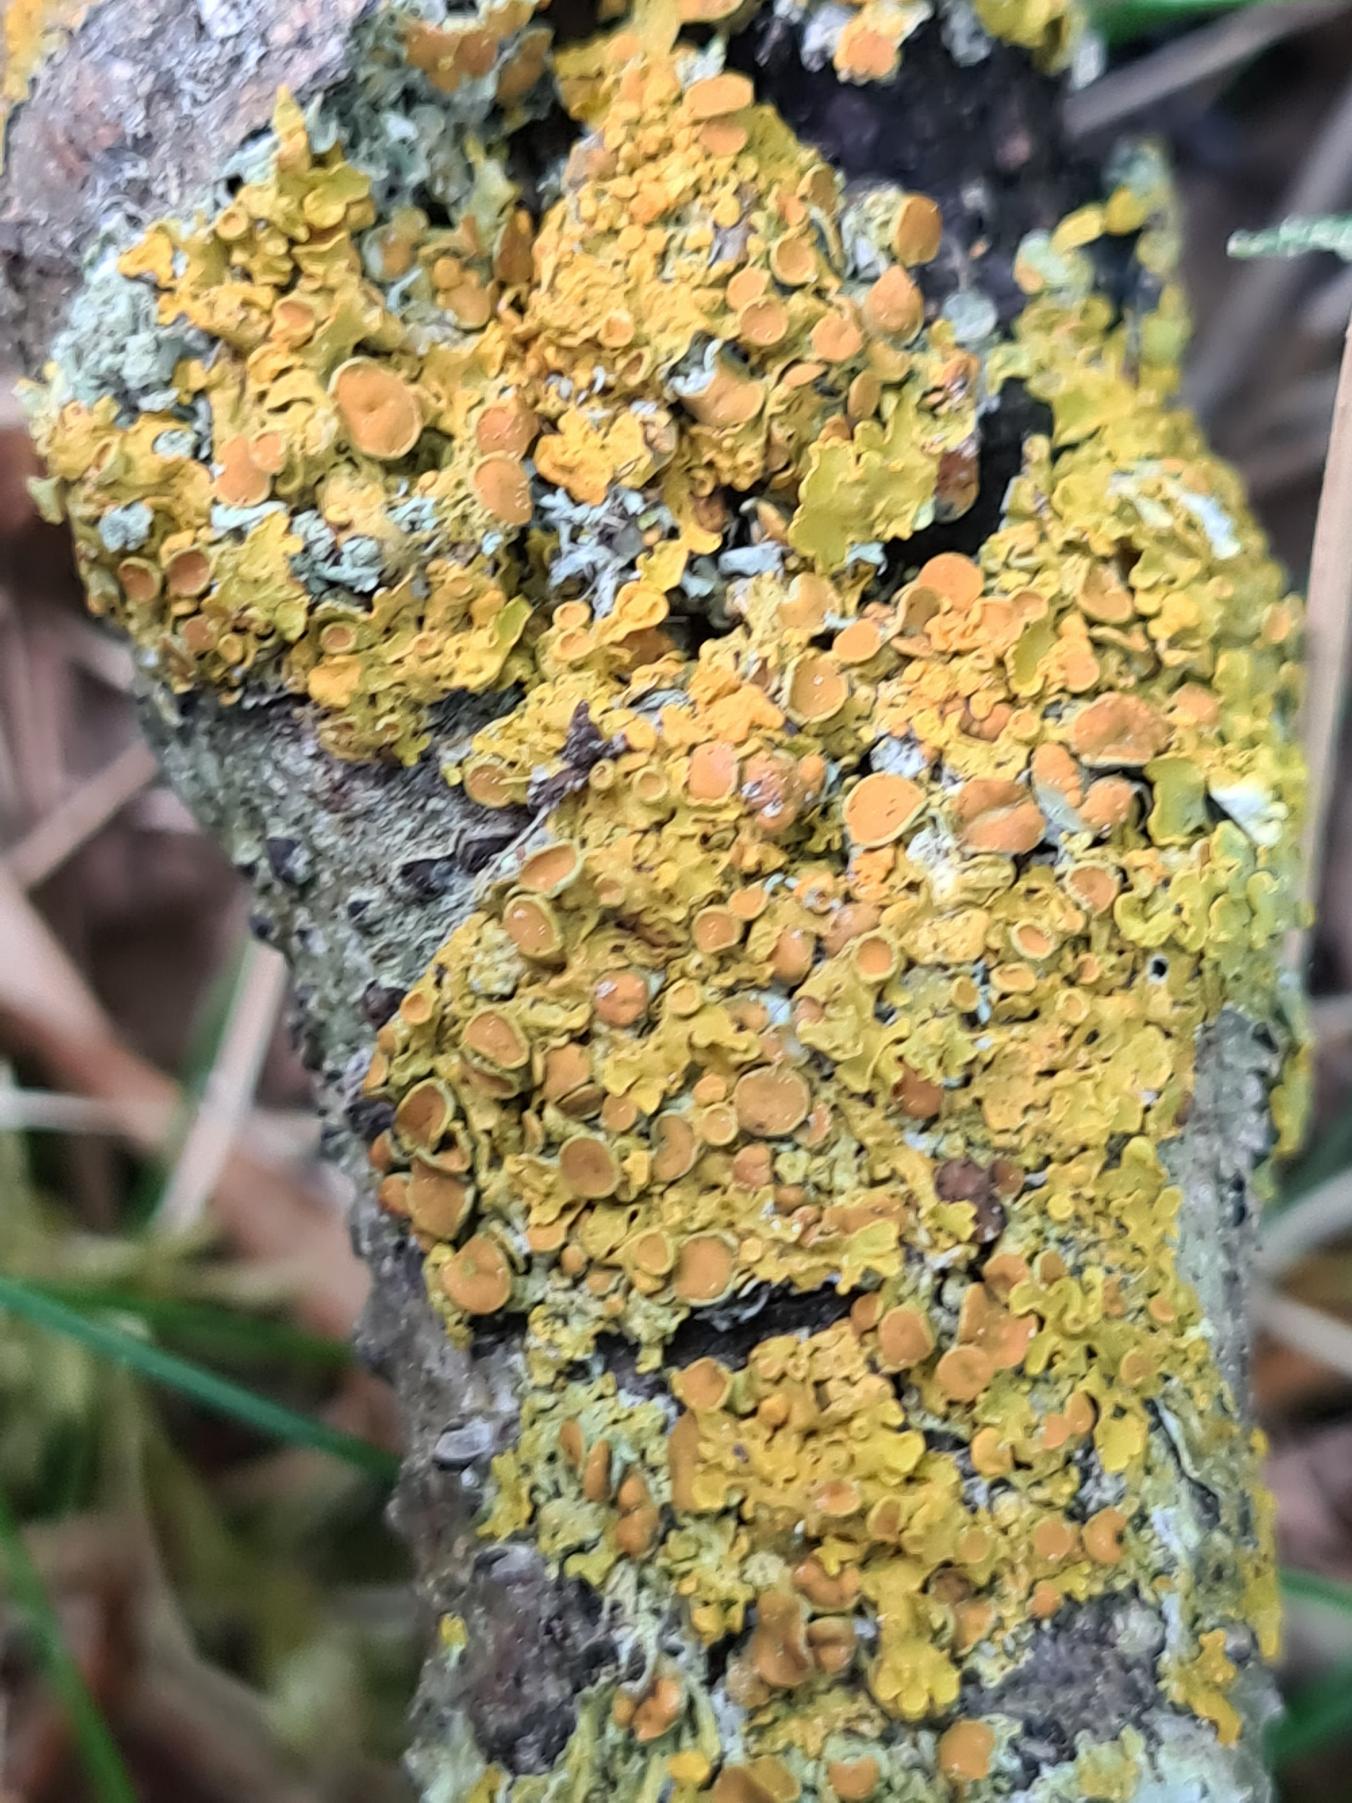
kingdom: Fungi
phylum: Ascomycota
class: Lecanoromycetes
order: Teloschistales
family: Teloschistaceae
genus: Xanthoria
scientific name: Xanthoria parietina
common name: Almindelig væggelav
